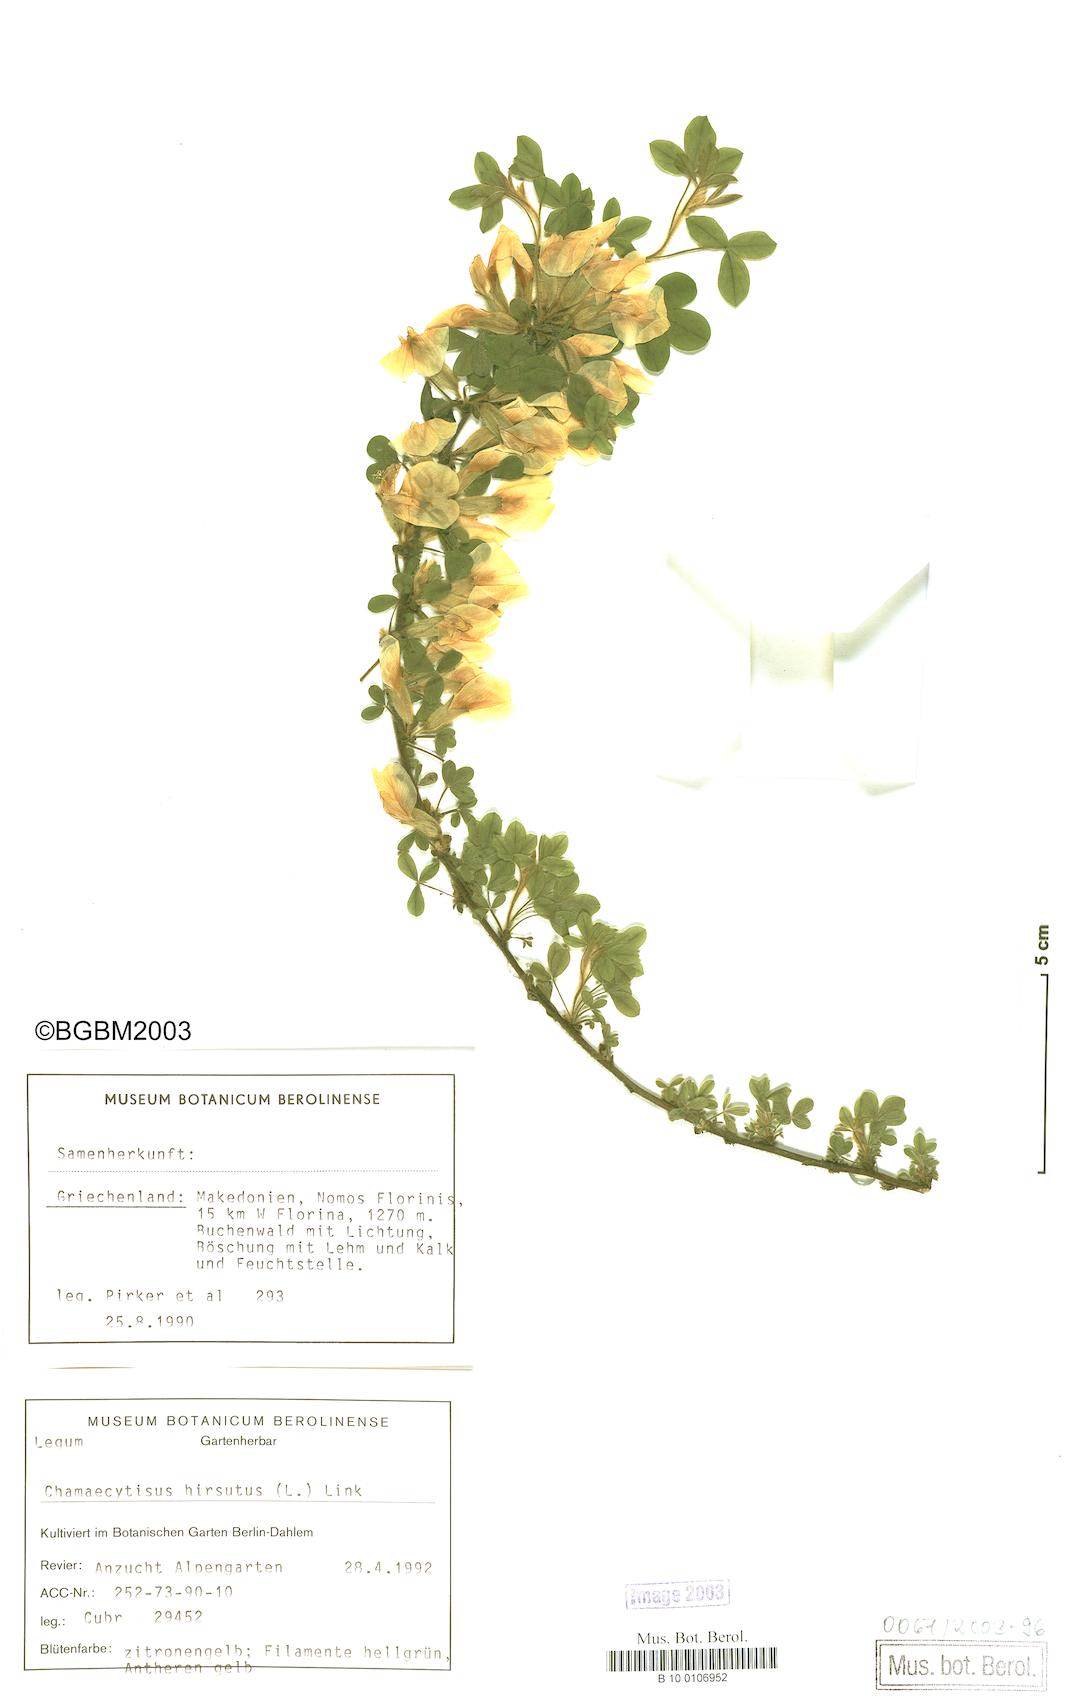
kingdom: Plantae
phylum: Tracheophyta
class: Magnoliopsida
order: Fabales
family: Fabaceae
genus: Chamaecytisus
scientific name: Chamaecytisus hirsutus
